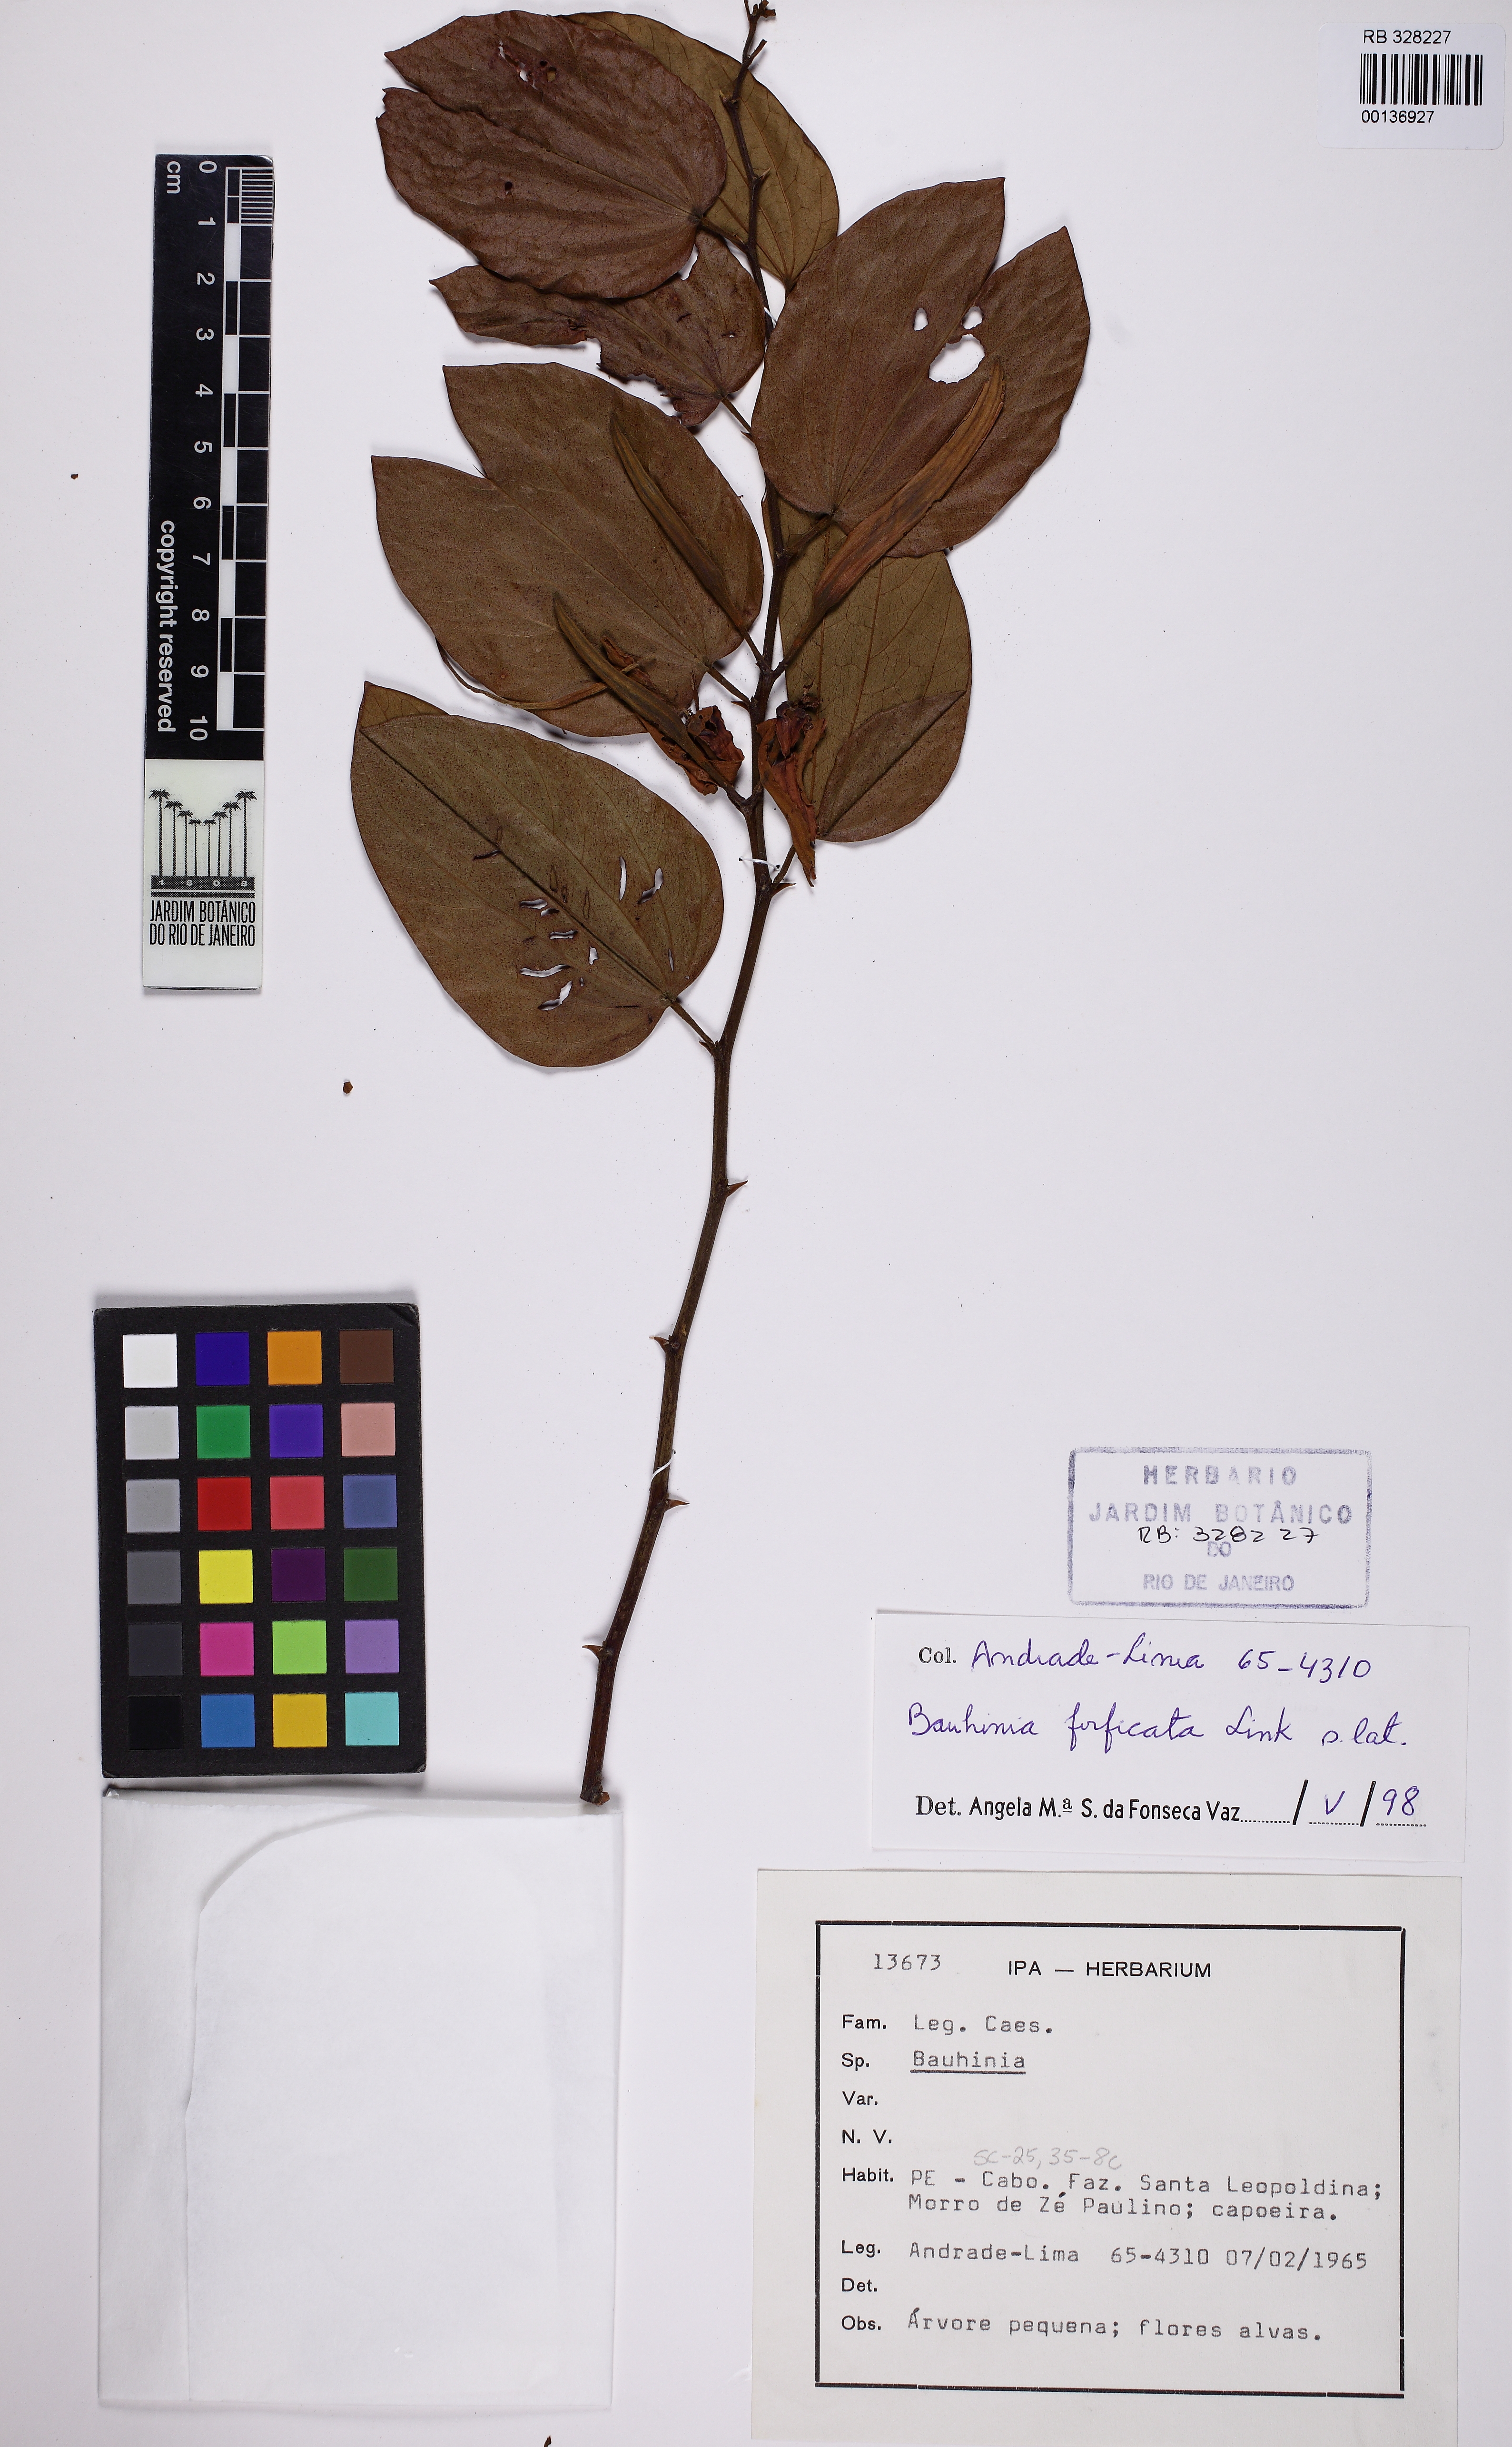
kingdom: Plantae
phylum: Tracheophyta
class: Magnoliopsida
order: Fabales
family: Fabaceae
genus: Bauhinia
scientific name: Bauhinia forficata
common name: Orchid tree
